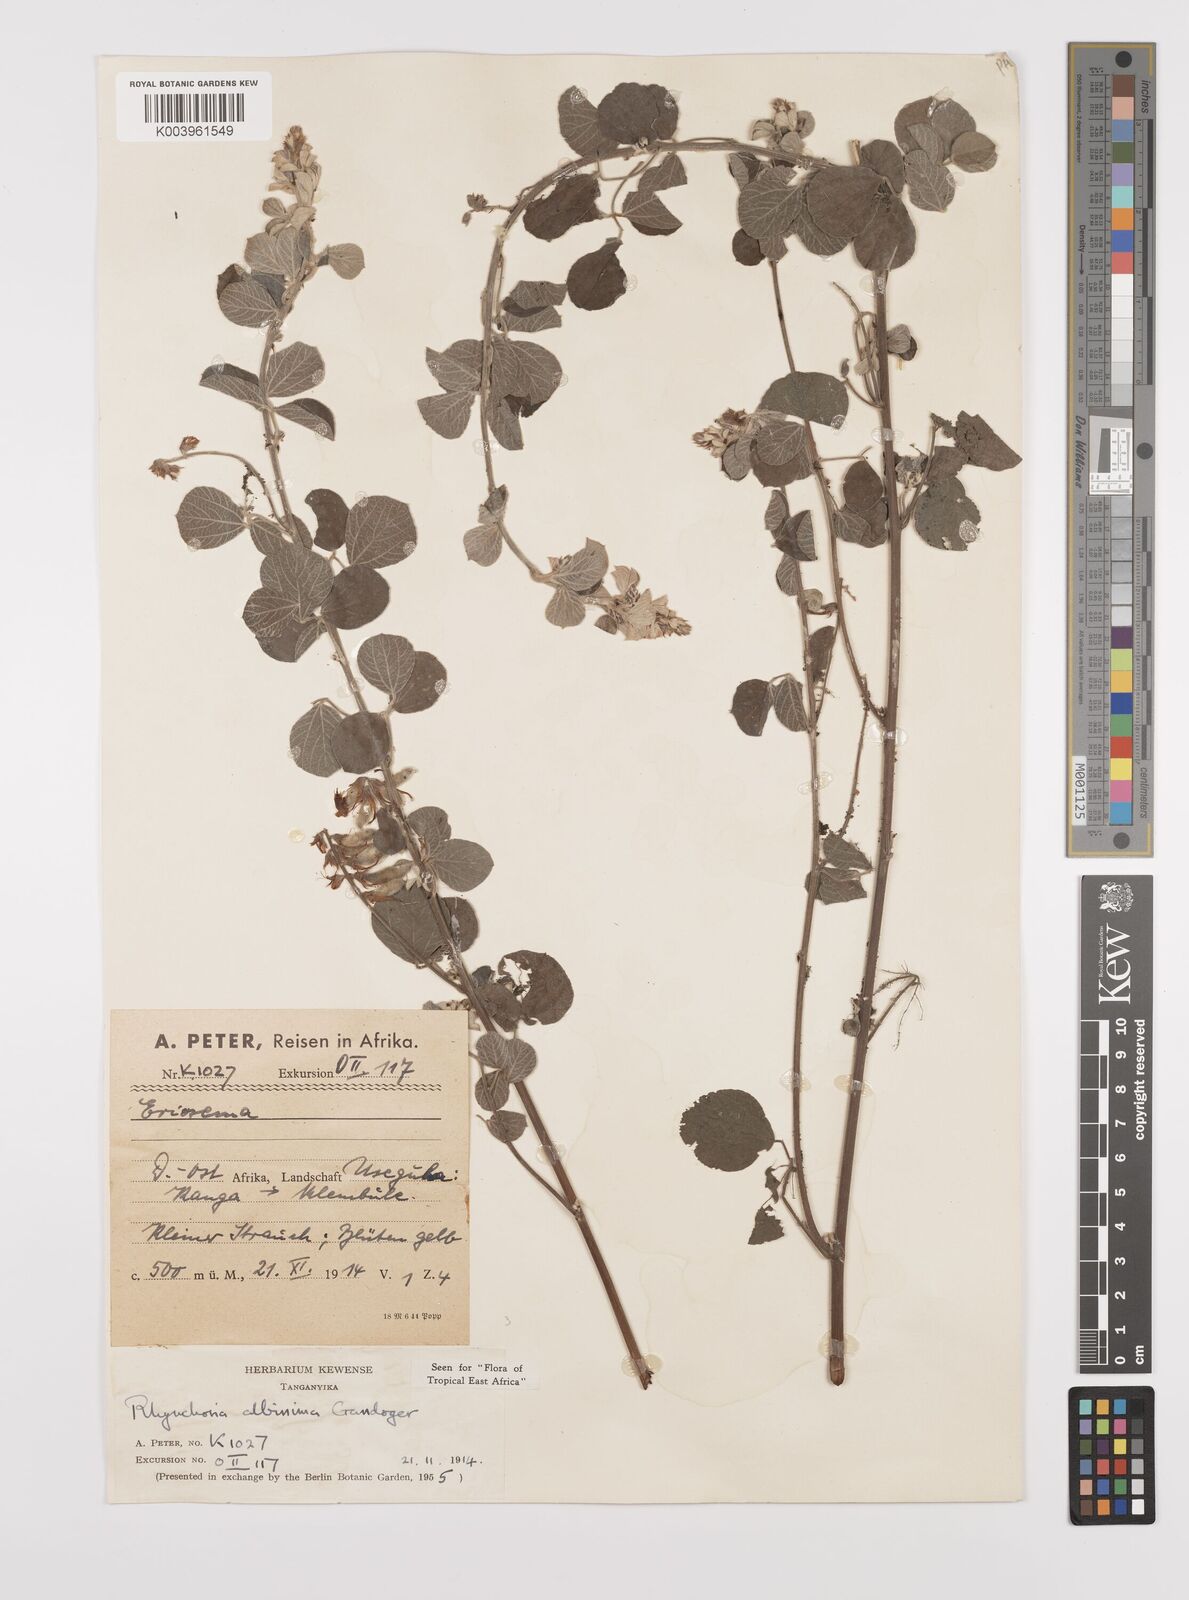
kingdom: Plantae
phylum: Tracheophyta
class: Magnoliopsida
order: Fabales
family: Fabaceae
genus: Rhynchosia
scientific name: Rhynchosia albissima
